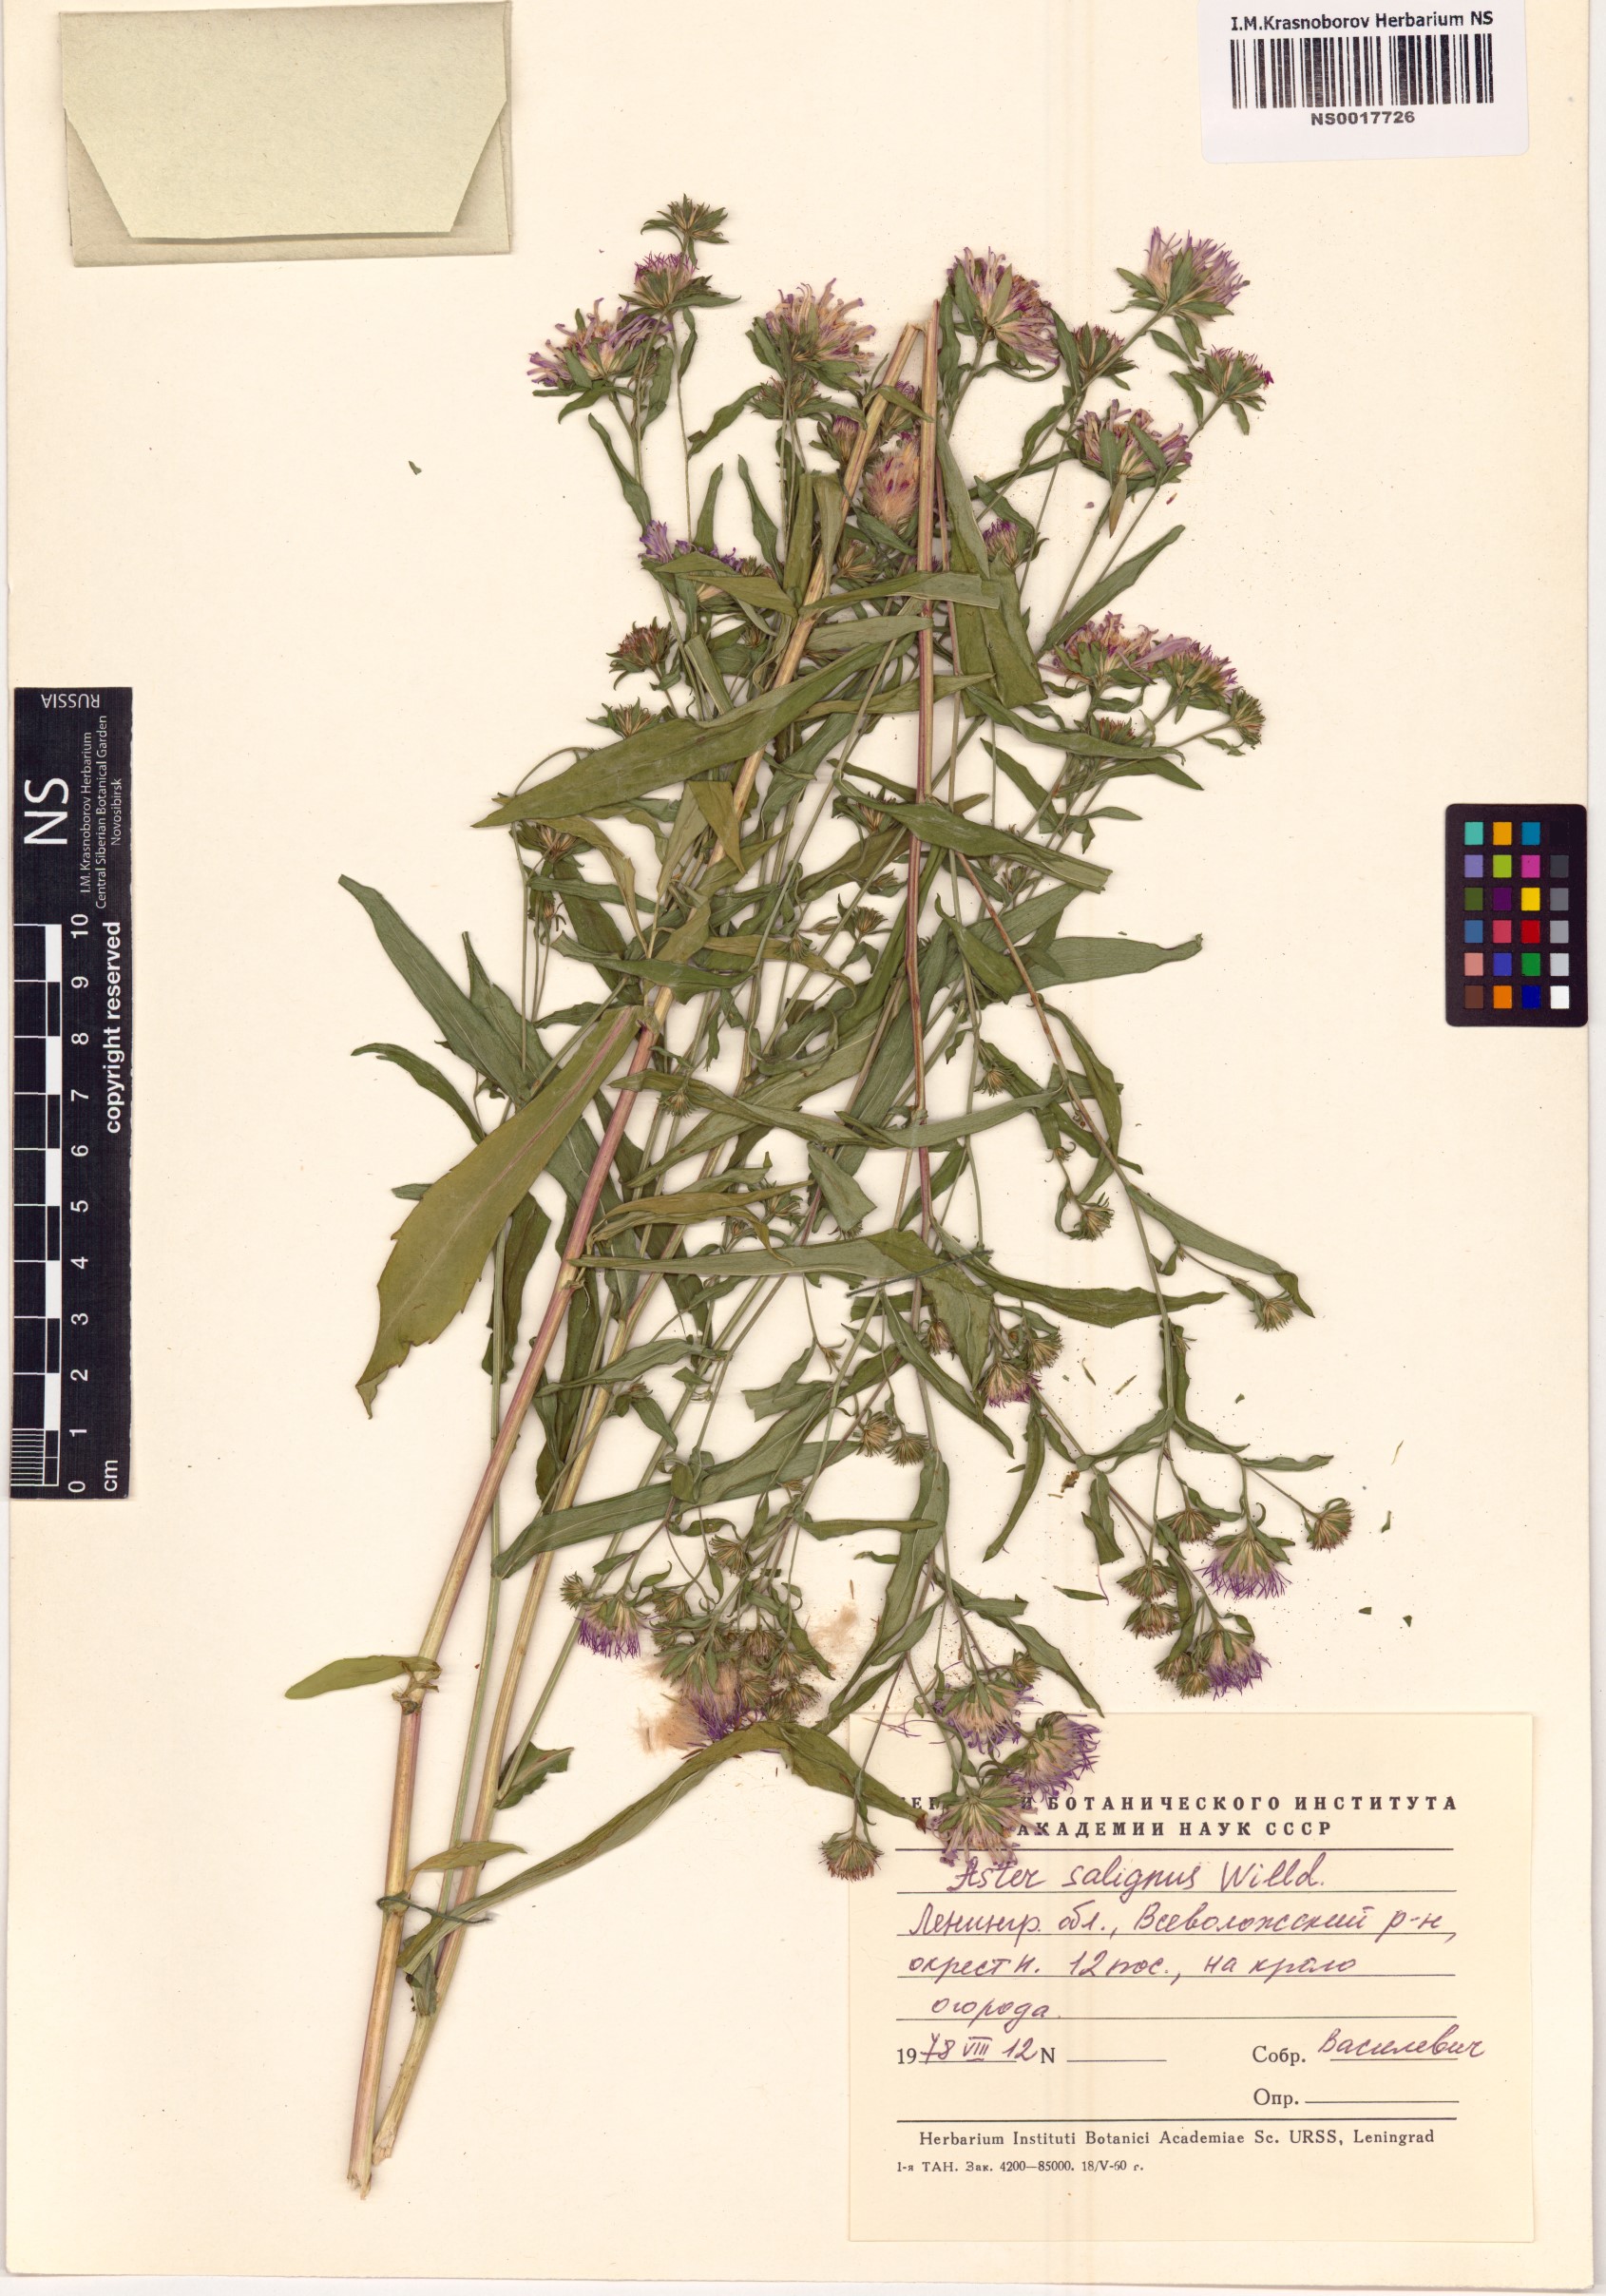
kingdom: Plantae
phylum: Tracheophyta
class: Magnoliopsida
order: Asterales
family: Asteraceae
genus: Symphyotrichum
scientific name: Symphyotrichum salignum
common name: Common michaelmas daisy
